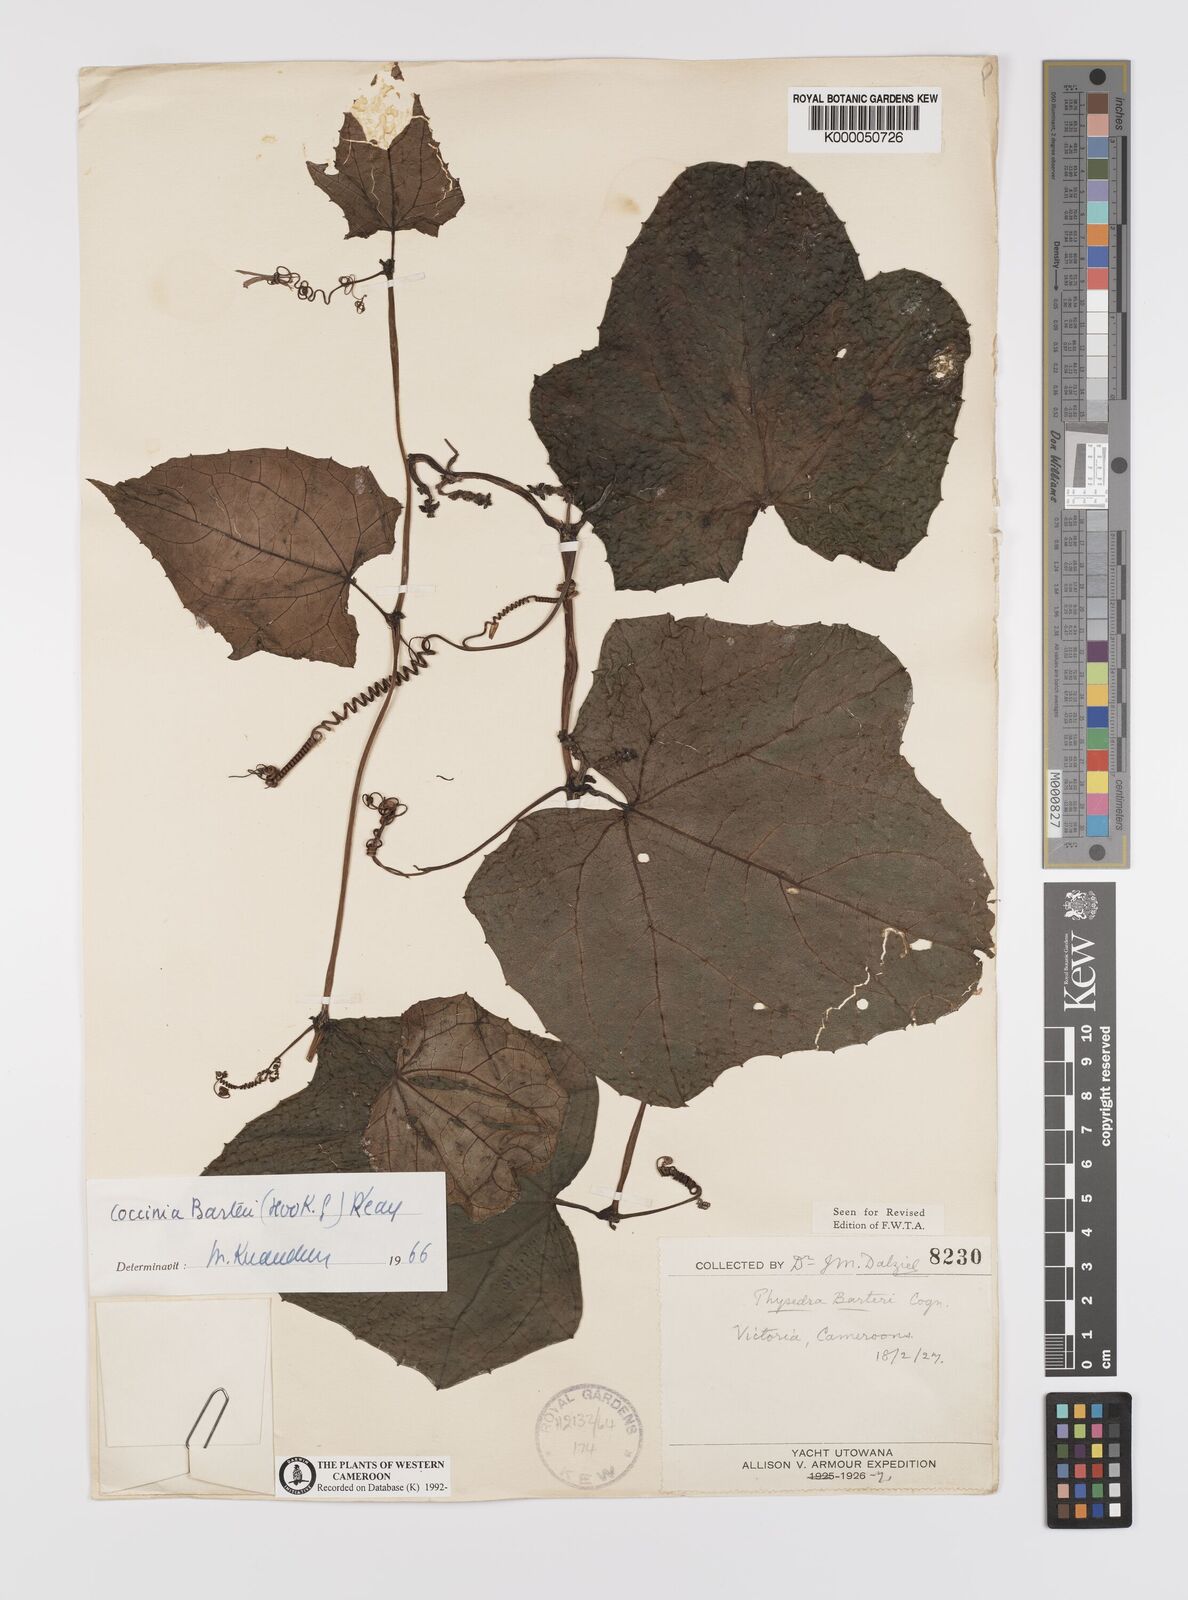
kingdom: Plantae
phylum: Tracheophyta
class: Magnoliopsida
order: Cucurbitales
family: Cucurbitaceae
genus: Coccinia
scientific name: Coccinia barteri
